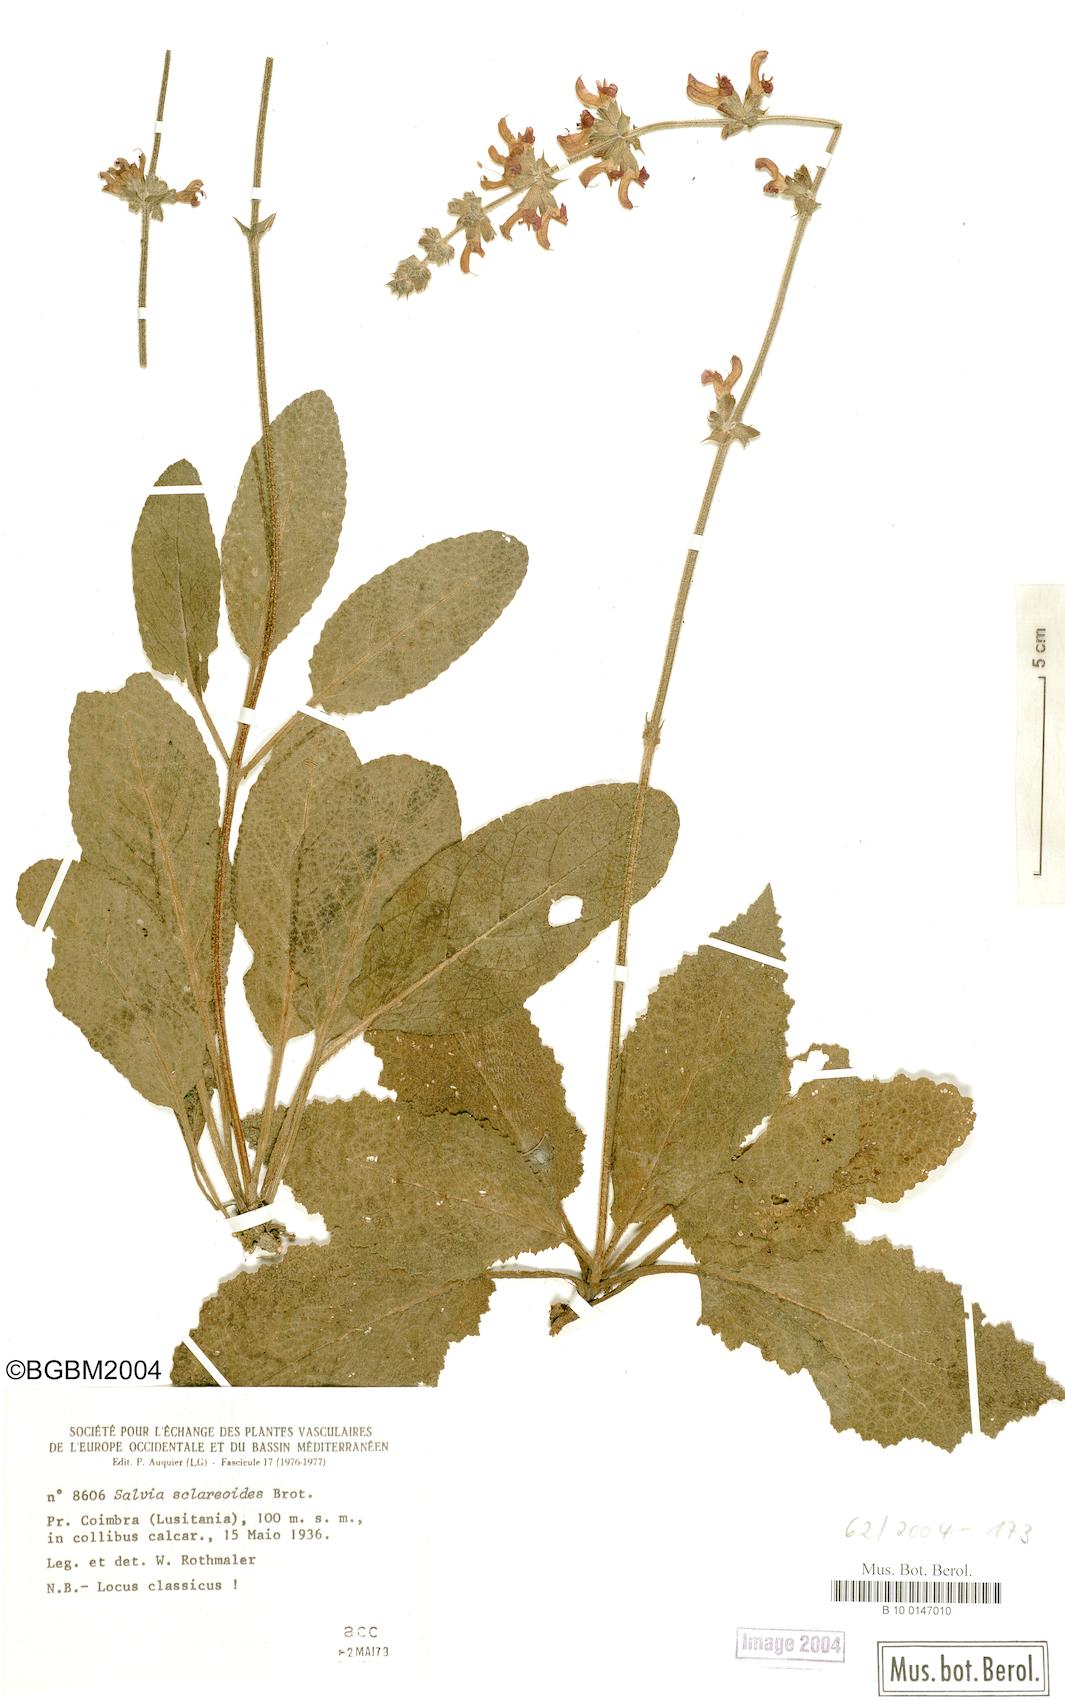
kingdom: Plantae
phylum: Tracheophyta
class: Magnoliopsida
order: Lamiales
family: Lamiaceae
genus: Salvia
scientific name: Salvia sclareoides
